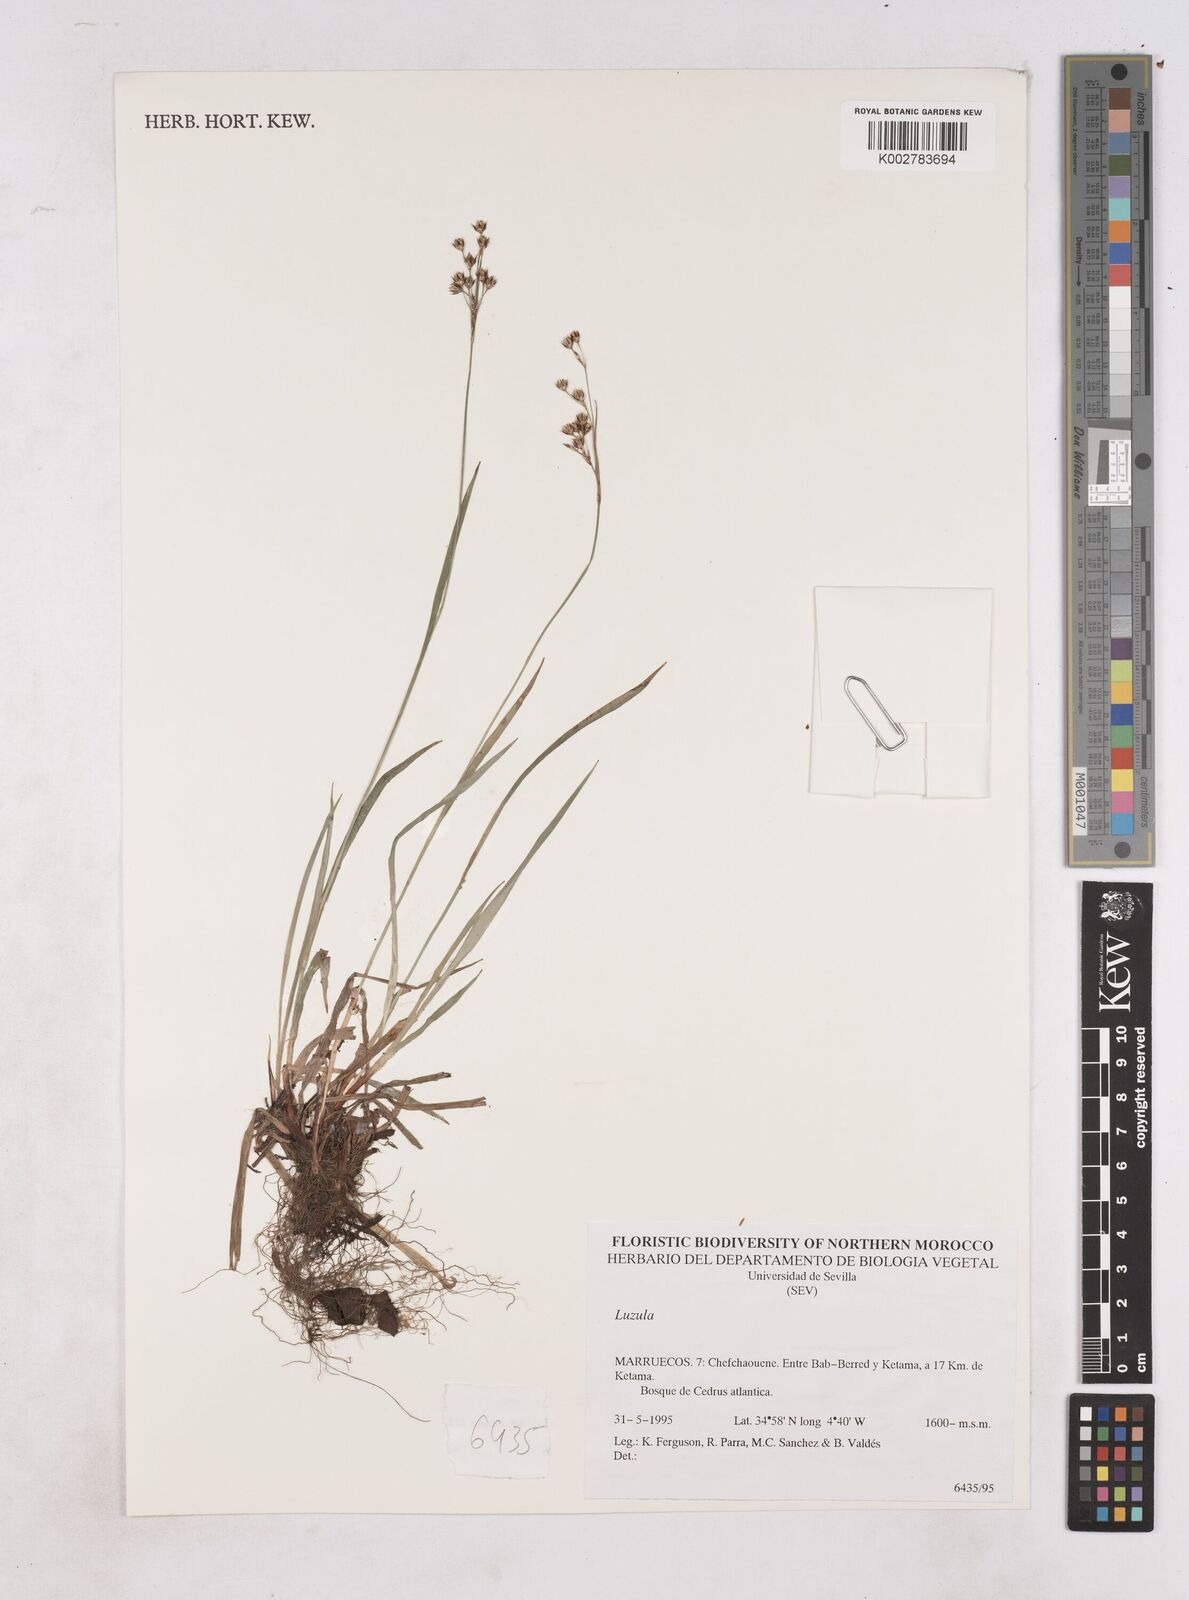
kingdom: Plantae
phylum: Tracheophyta
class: Liliopsida
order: Poales
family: Juncaceae
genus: Luzula
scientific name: Luzula
